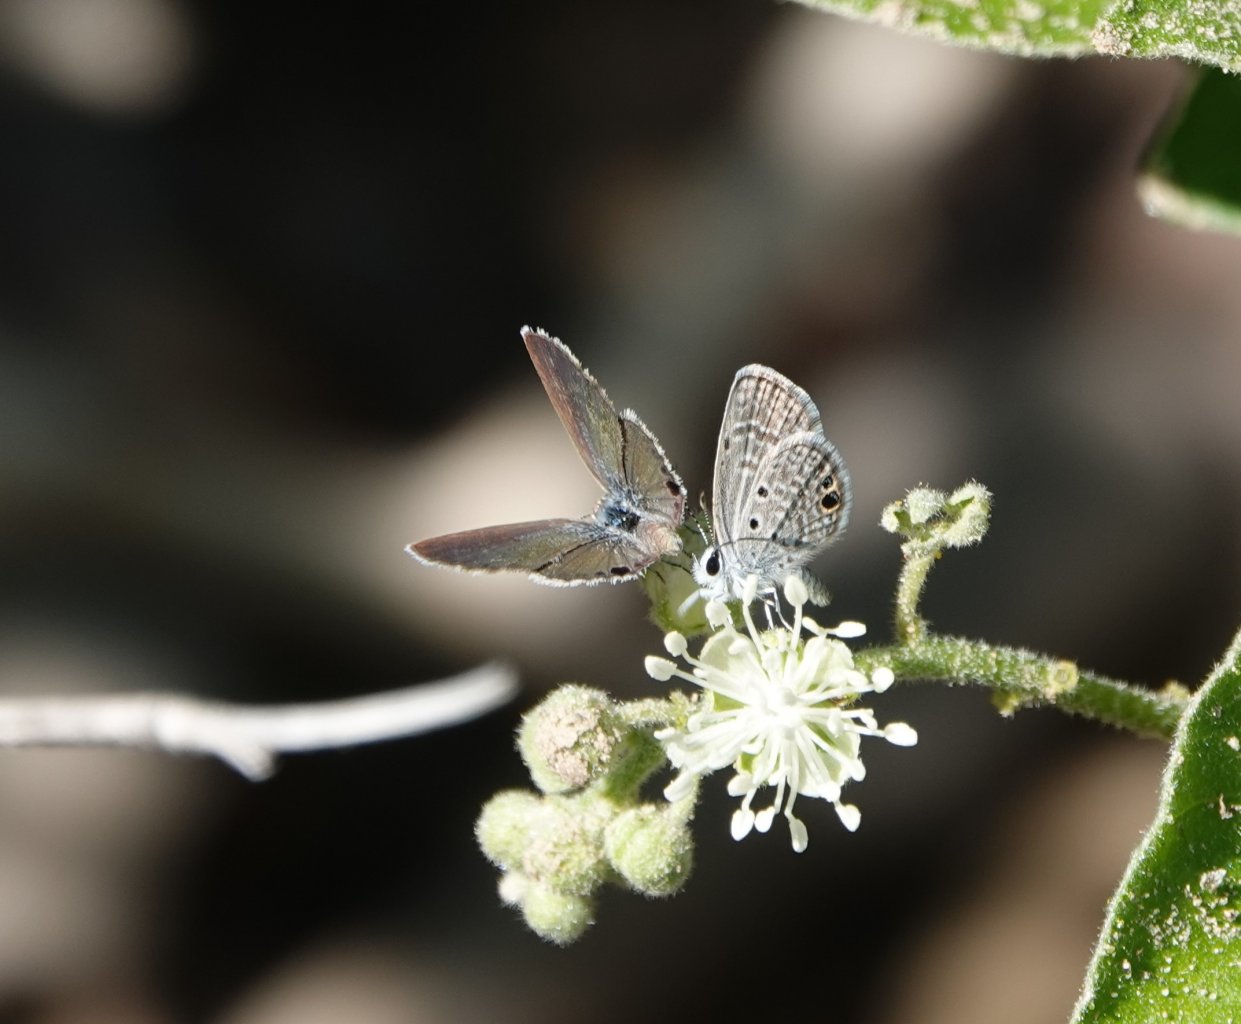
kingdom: Animalia
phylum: Arthropoda
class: Insecta
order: Lepidoptera
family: Lycaenidae
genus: Hemiargus
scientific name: Hemiargus ceraunus
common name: Ceraunus Blue
